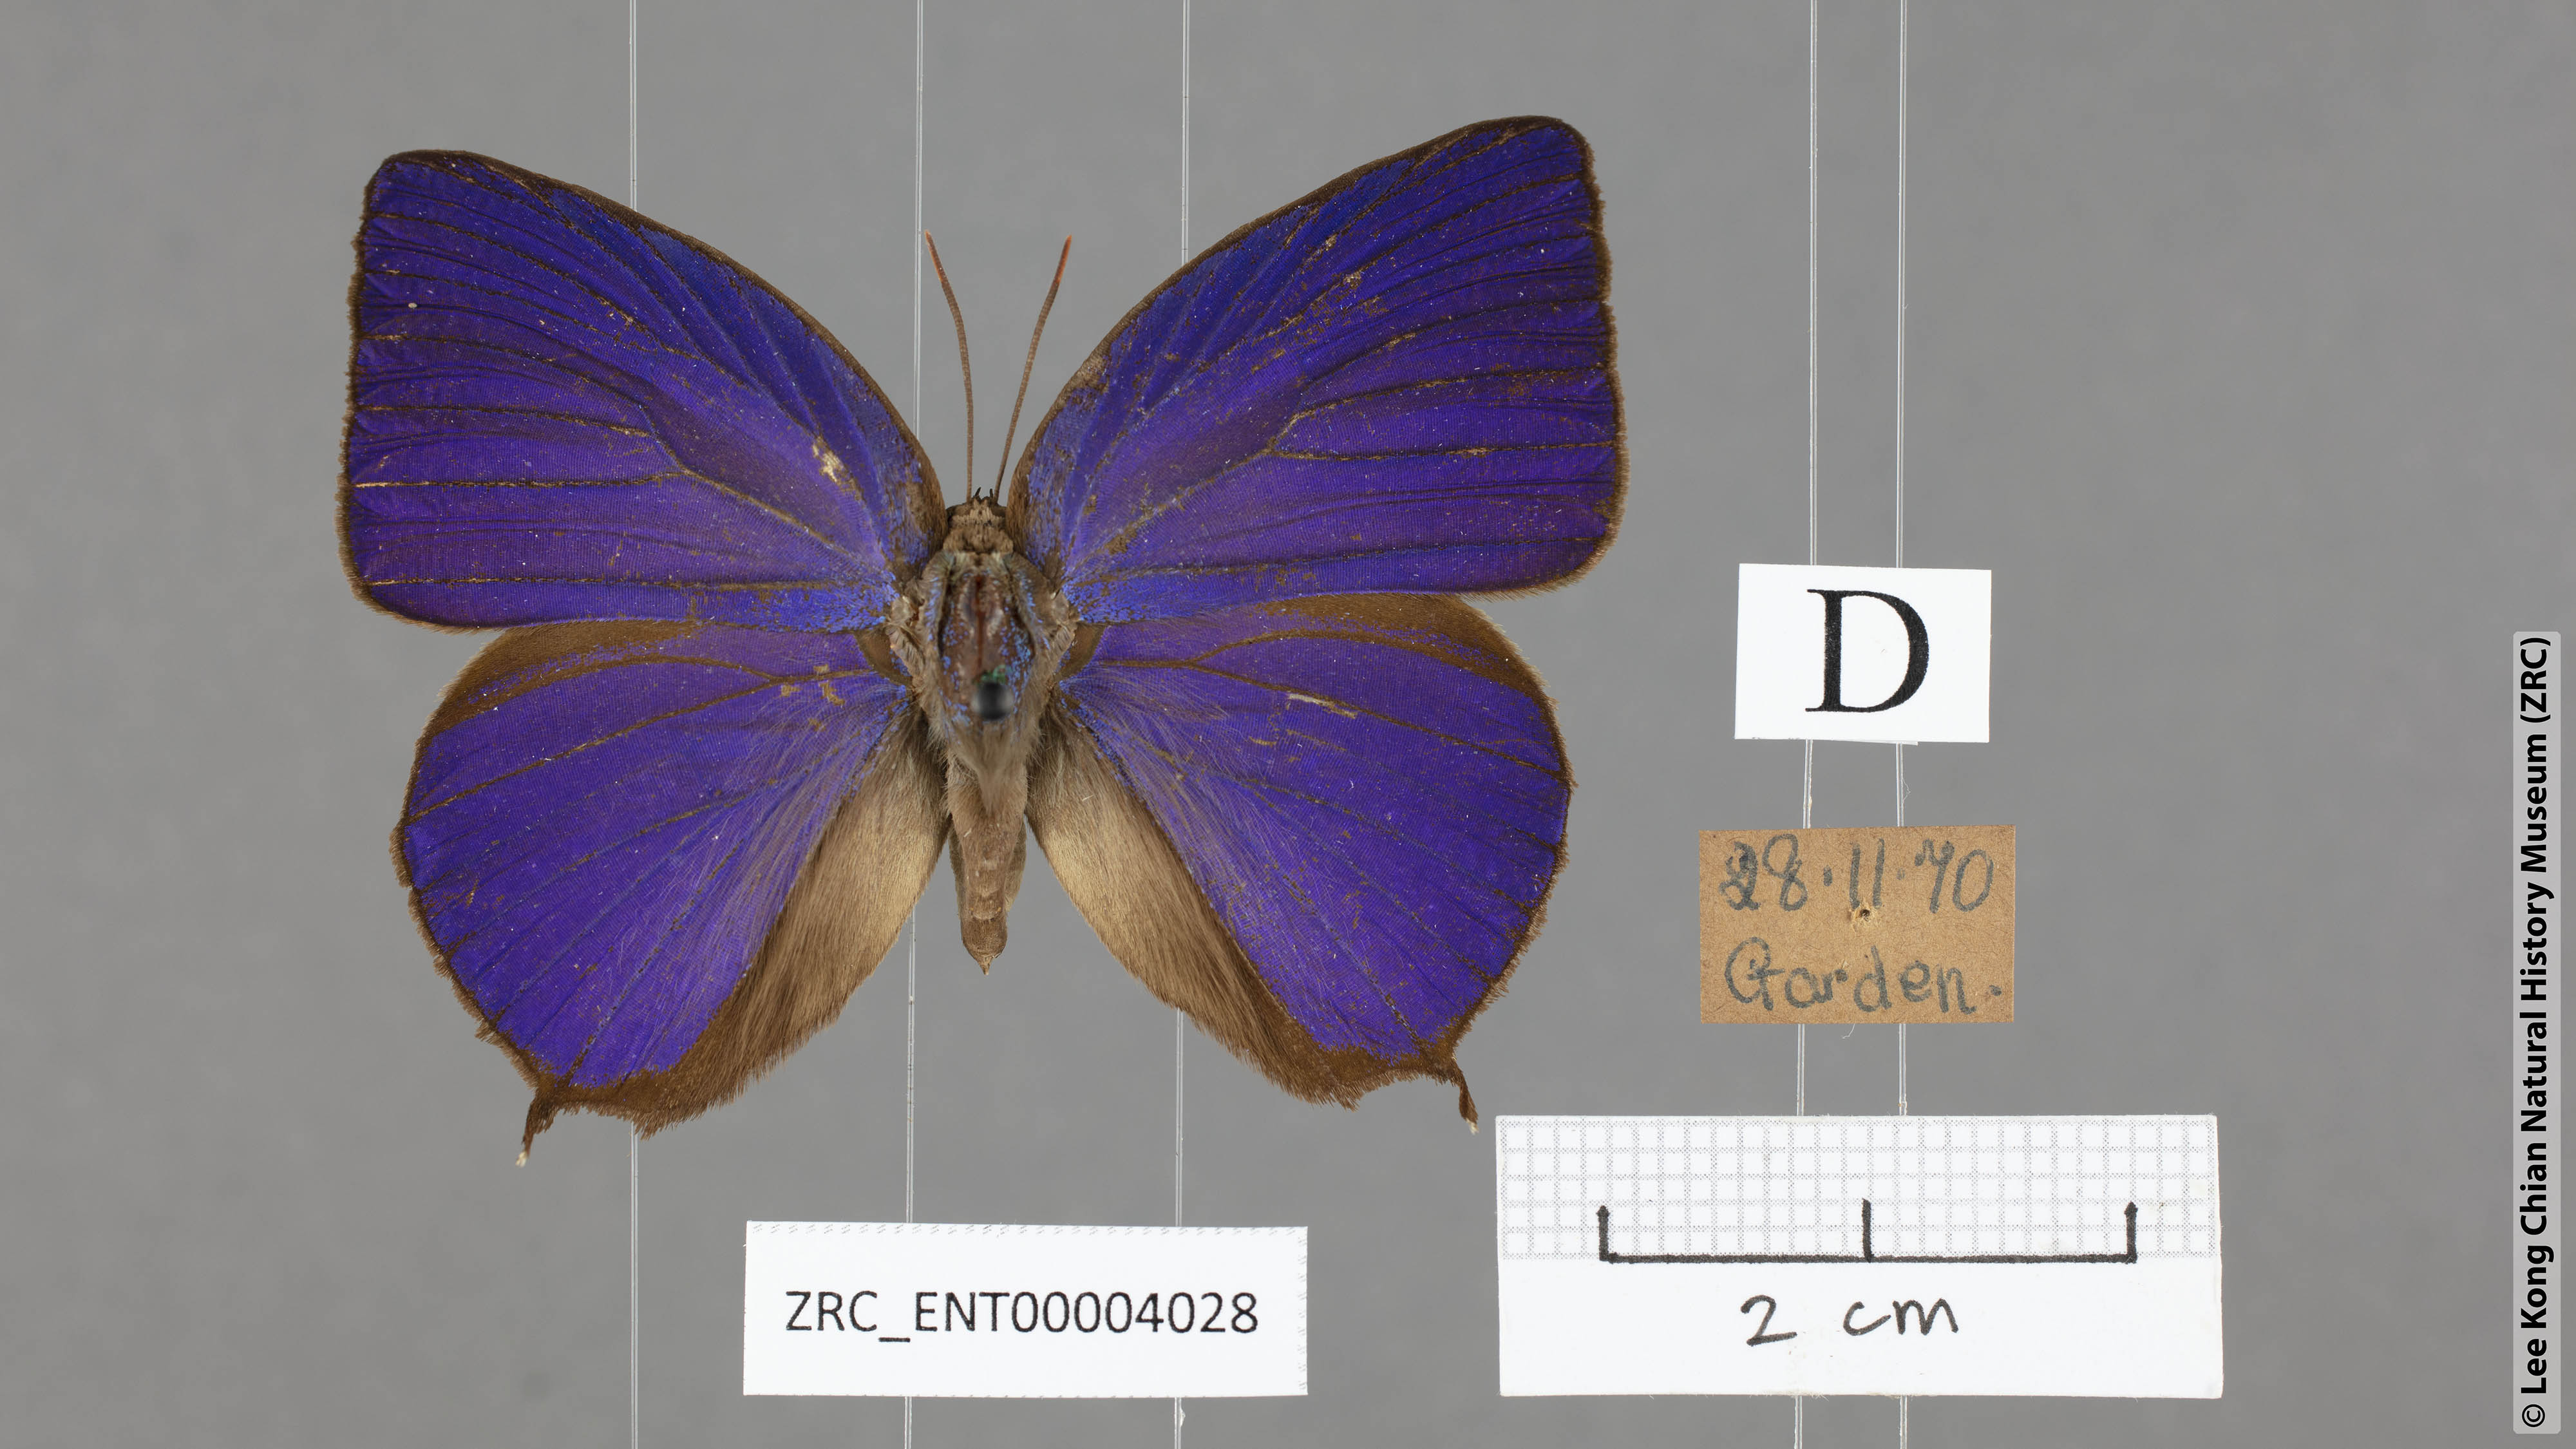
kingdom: Animalia
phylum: Arthropoda
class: Insecta
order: Lepidoptera
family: Lycaenidae
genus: Arhopala
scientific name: Arhopala centaurus
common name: Dull oak-blue
